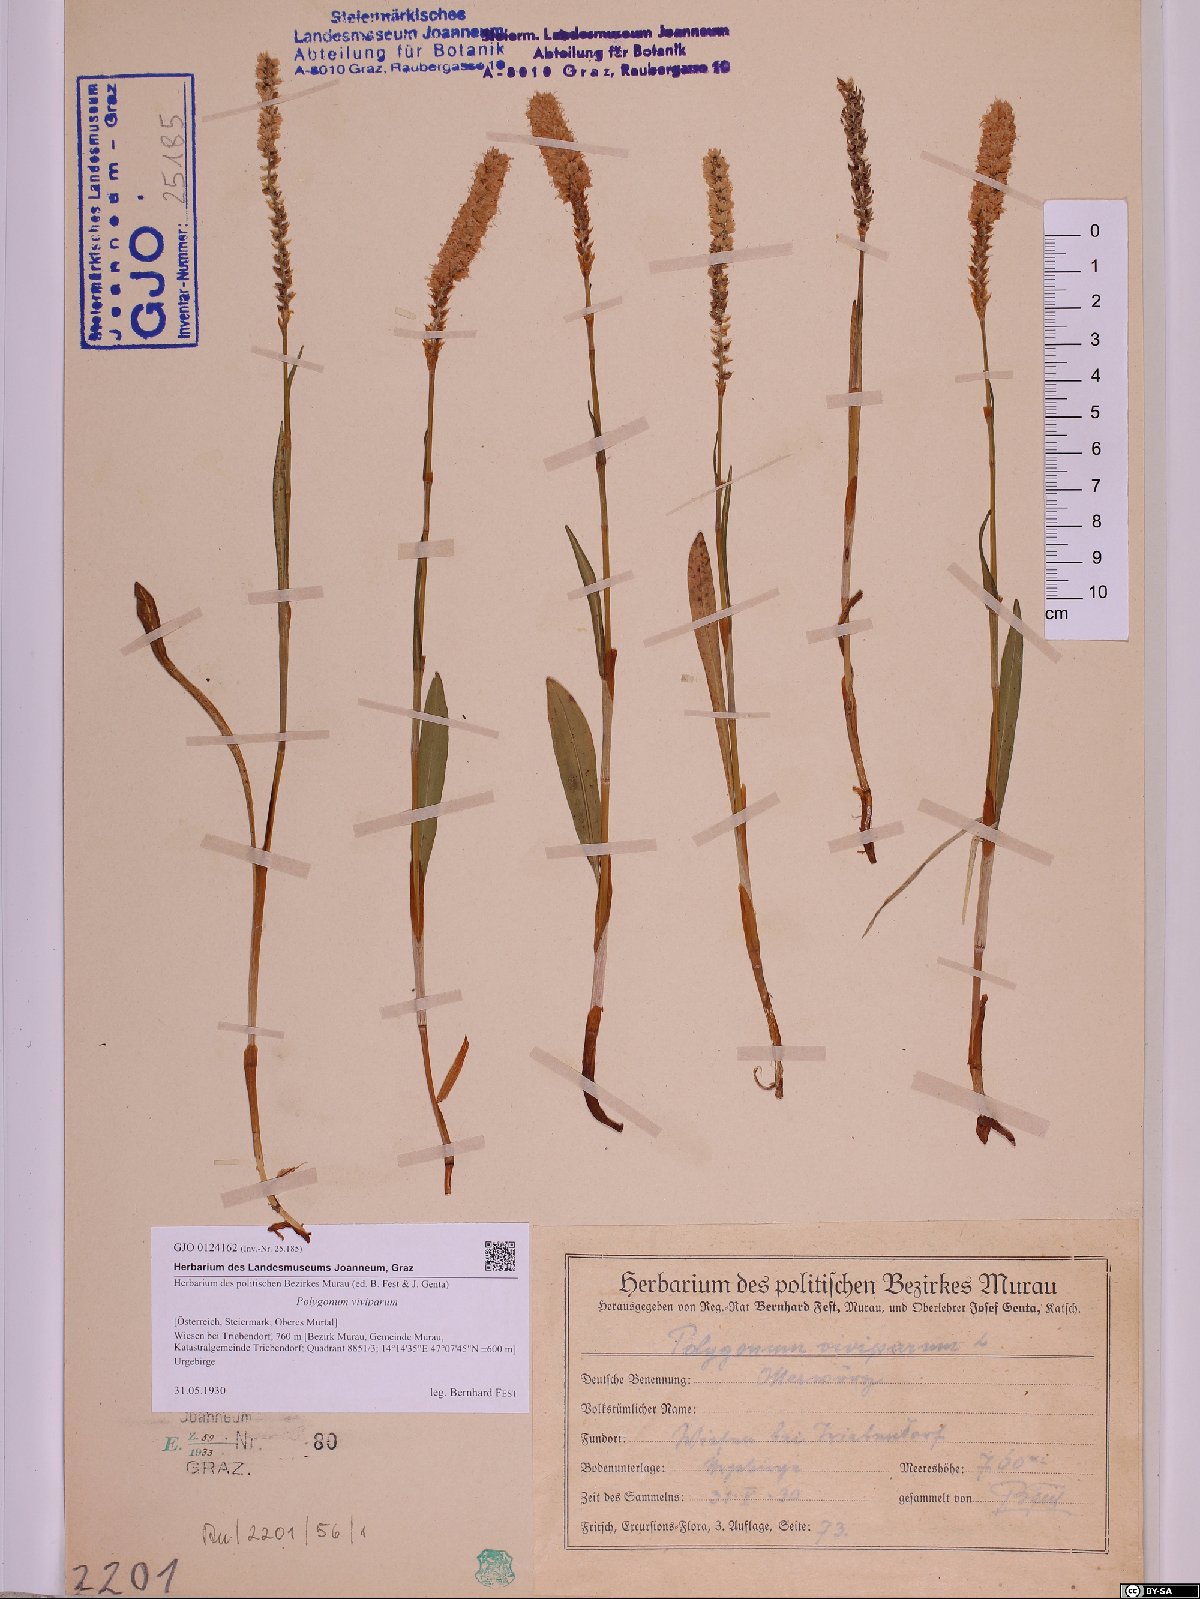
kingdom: Plantae
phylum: Tracheophyta
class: Magnoliopsida
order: Caryophyllales
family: Polygonaceae
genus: Bistorta
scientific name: Bistorta vivipara
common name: Alpine bistort
